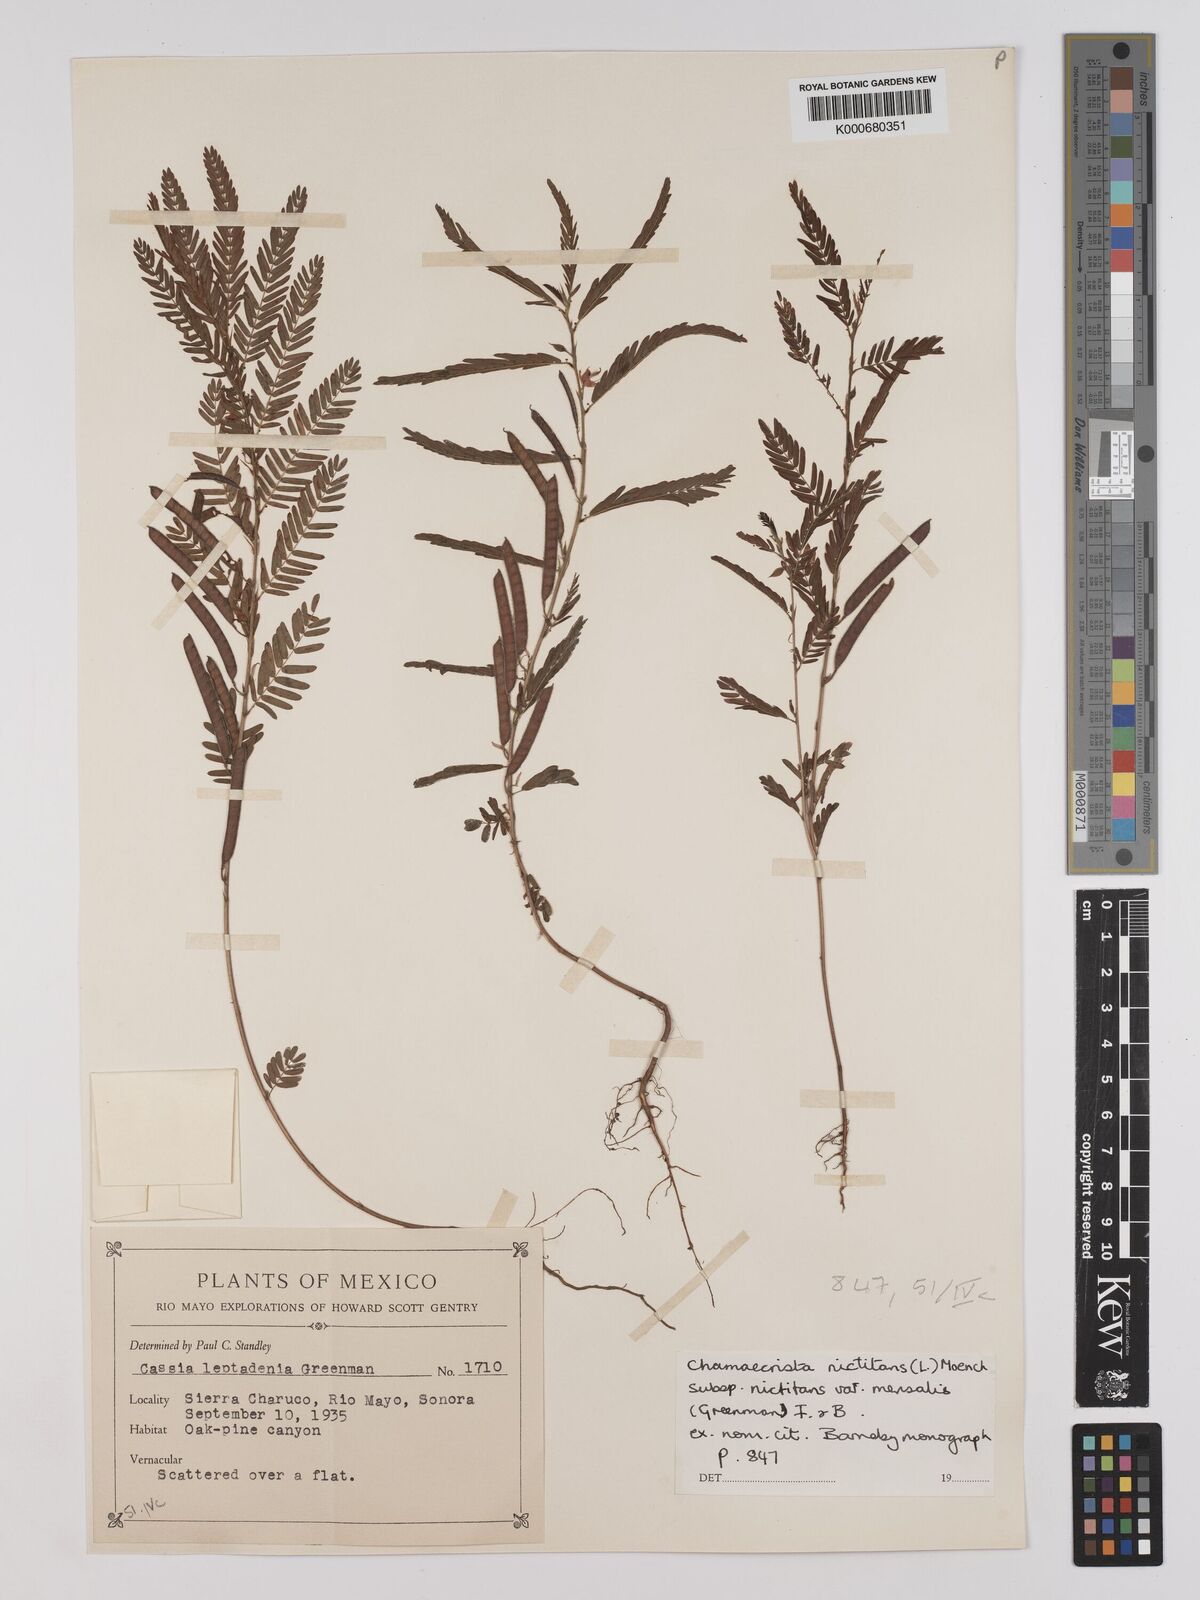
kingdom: Plantae
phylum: Tracheophyta
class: Magnoliopsida
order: Fabales
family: Fabaceae
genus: Chamaecrista
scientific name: Chamaecrista nictitans
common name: Sensitive cassia
